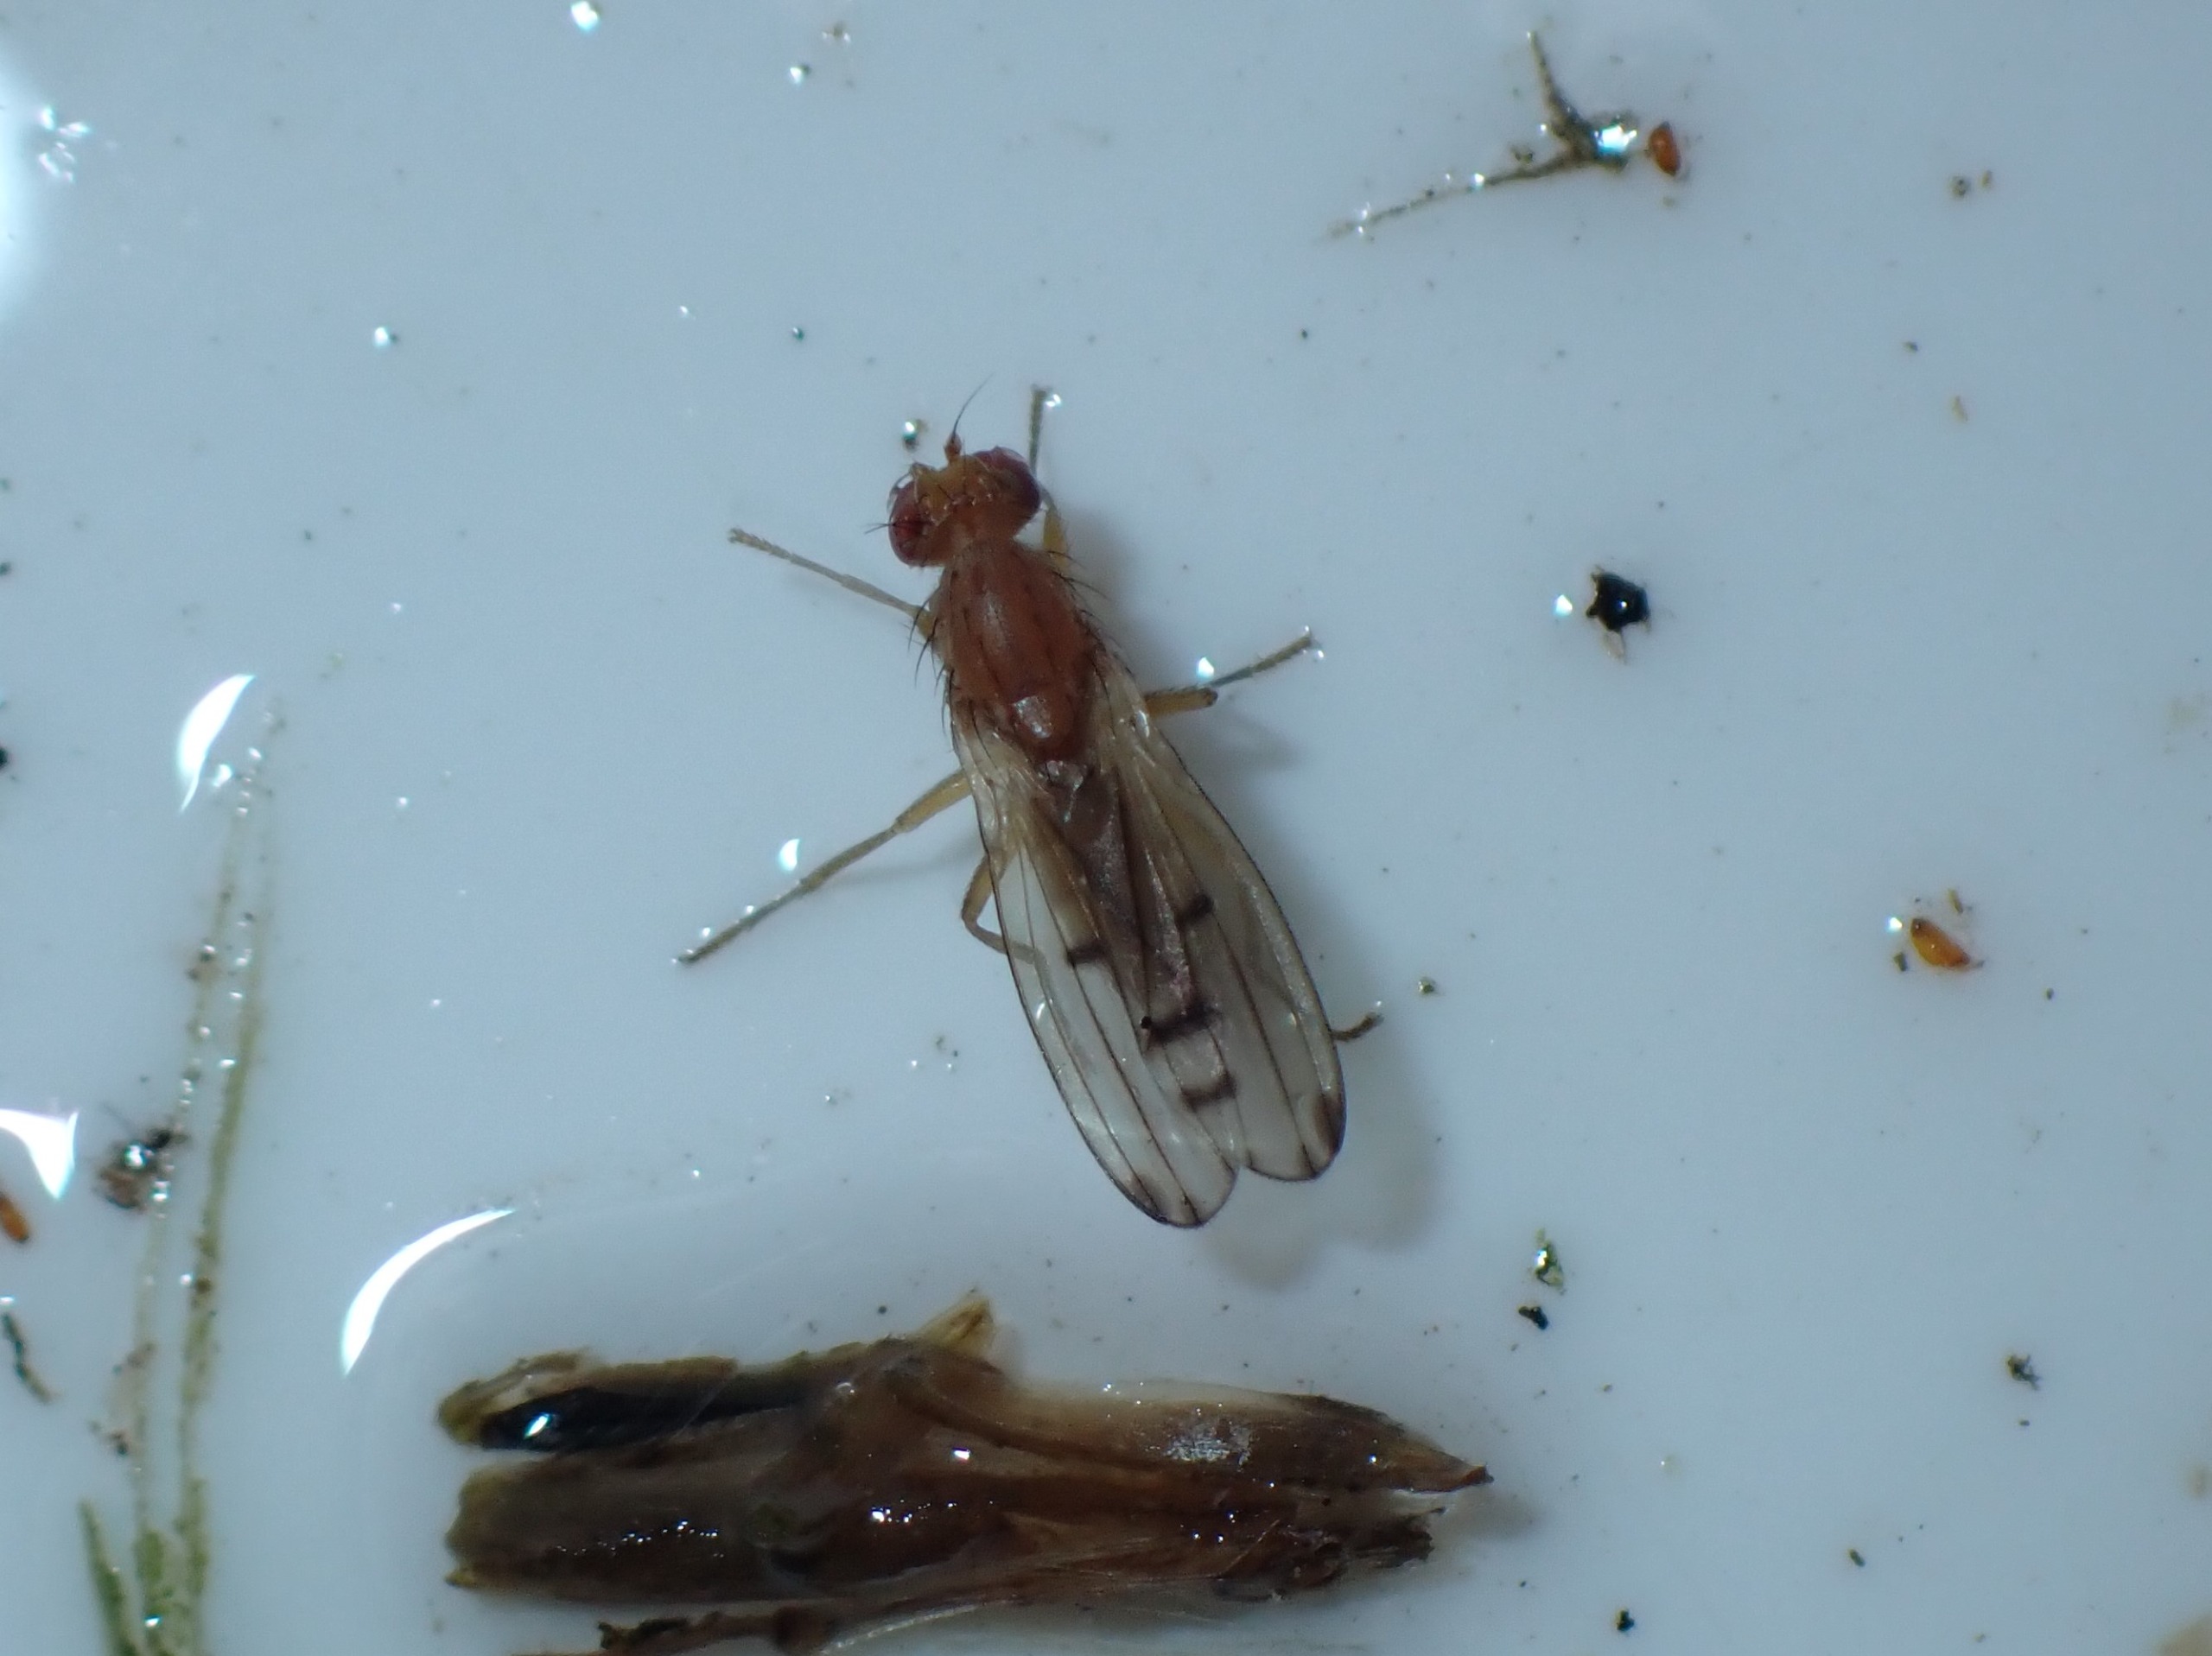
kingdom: Animalia
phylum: Arthropoda
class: Insecta
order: Diptera
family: Opomyzidae
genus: Opomyza
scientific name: Opomyza florum
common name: Gul græsflue
